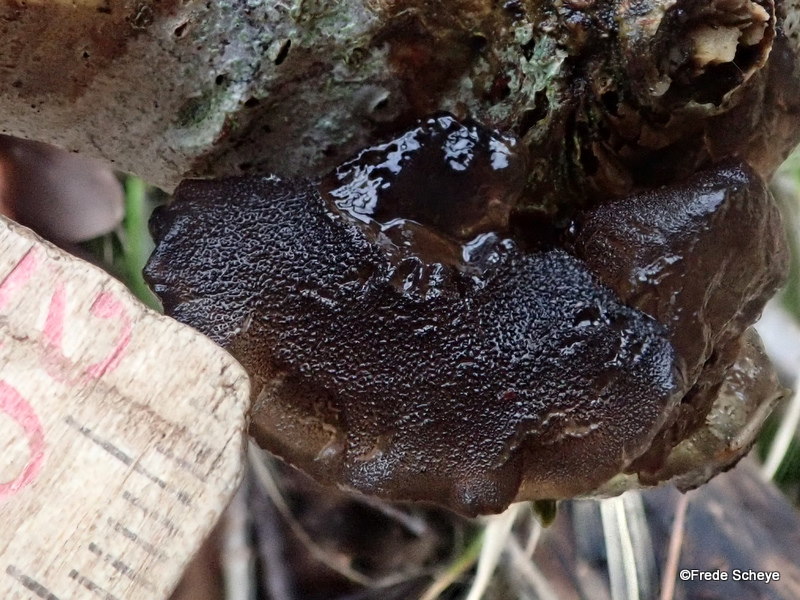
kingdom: Fungi
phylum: Basidiomycota
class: Agaricomycetes
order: Auriculariales
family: Auriculariaceae
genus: Exidia
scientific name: Exidia glandulosa
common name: ege-bævretop
